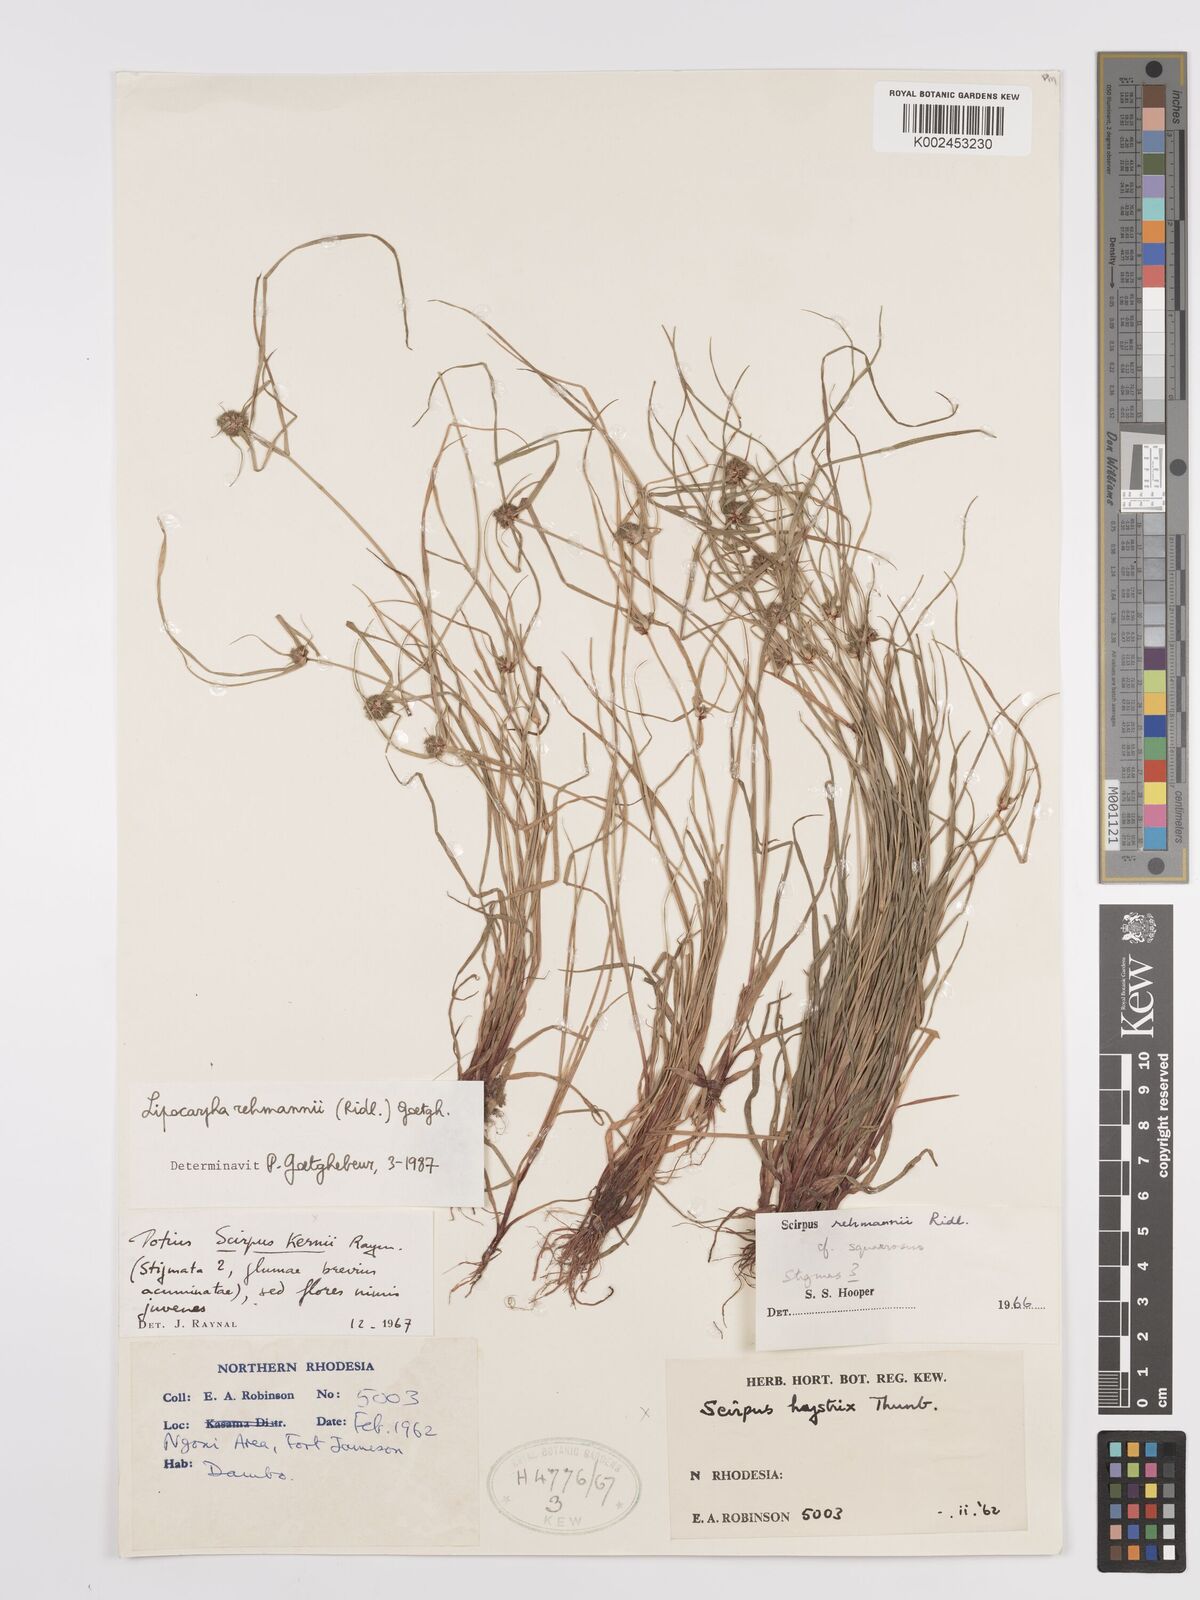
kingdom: Plantae
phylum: Tracheophyta
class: Liliopsida
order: Poales
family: Cyperaceae
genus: Cyperus
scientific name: Cyperus sanguinolentus
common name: Purpleglume flatsedge
